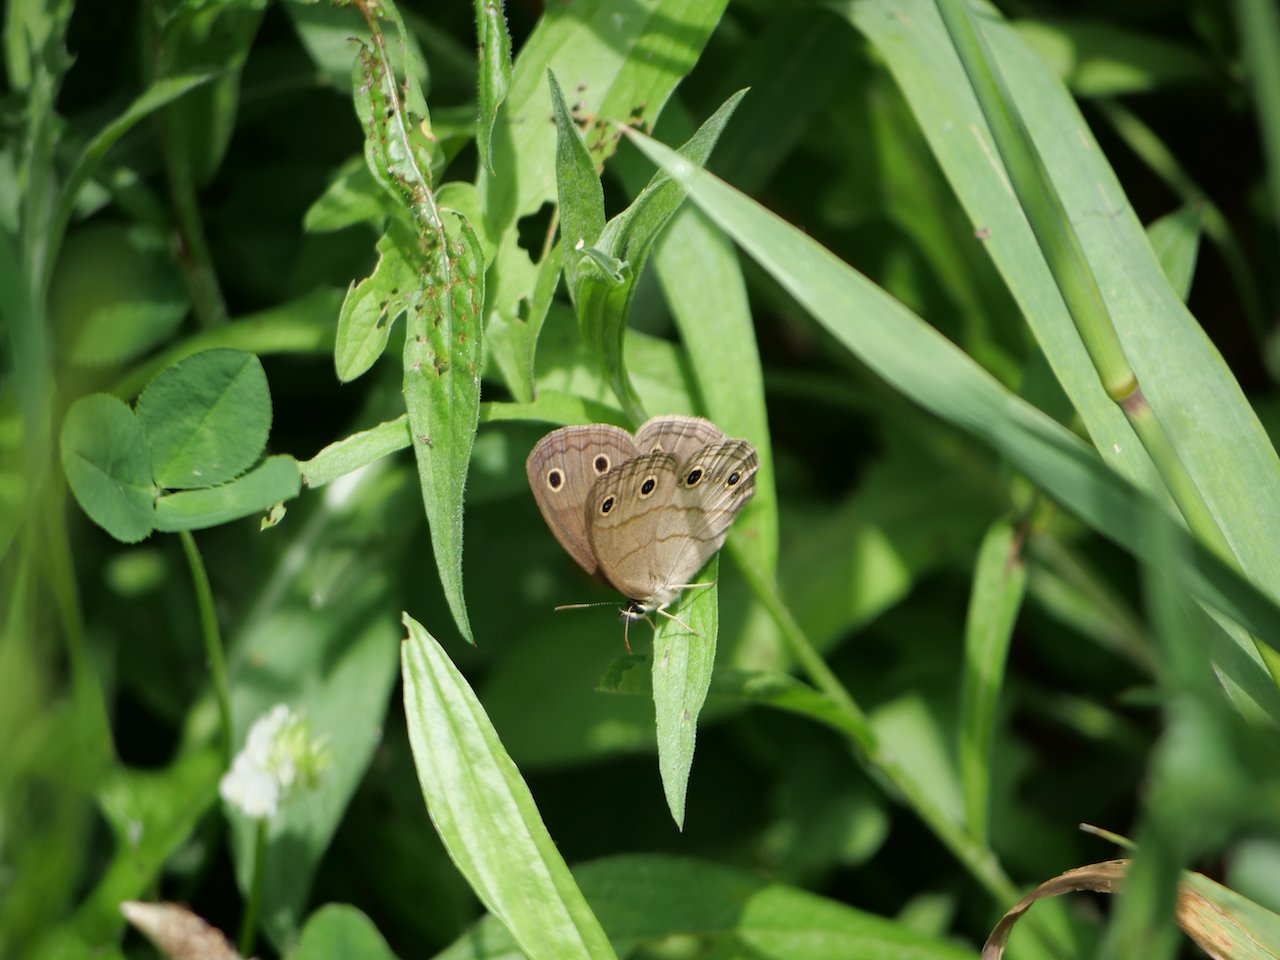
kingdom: Animalia
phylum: Arthropoda
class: Insecta
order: Lepidoptera
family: Nymphalidae
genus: Euptychia
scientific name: Euptychia cymela
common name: Little Wood Satyr
